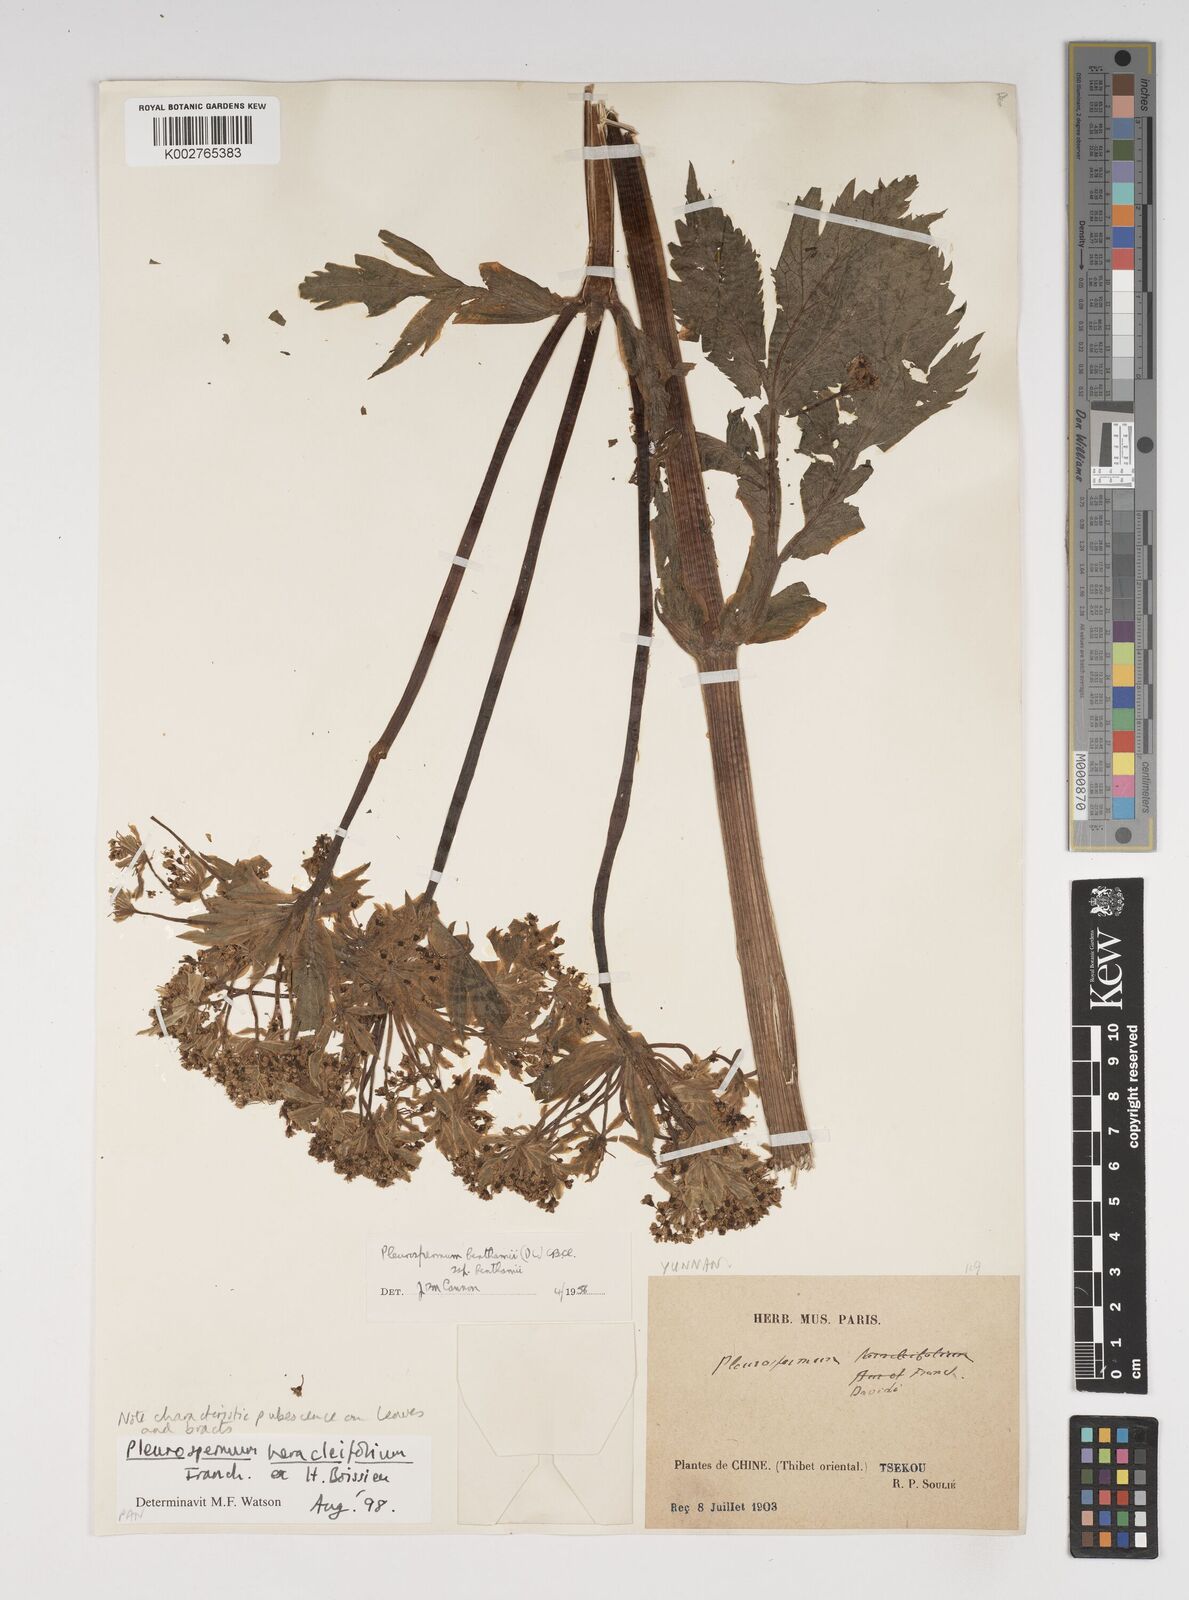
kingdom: Plantae
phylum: Tracheophyta
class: Magnoliopsida
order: Apiales
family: Apiaceae
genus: Hymenidium
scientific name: Hymenidium heracleifolium
